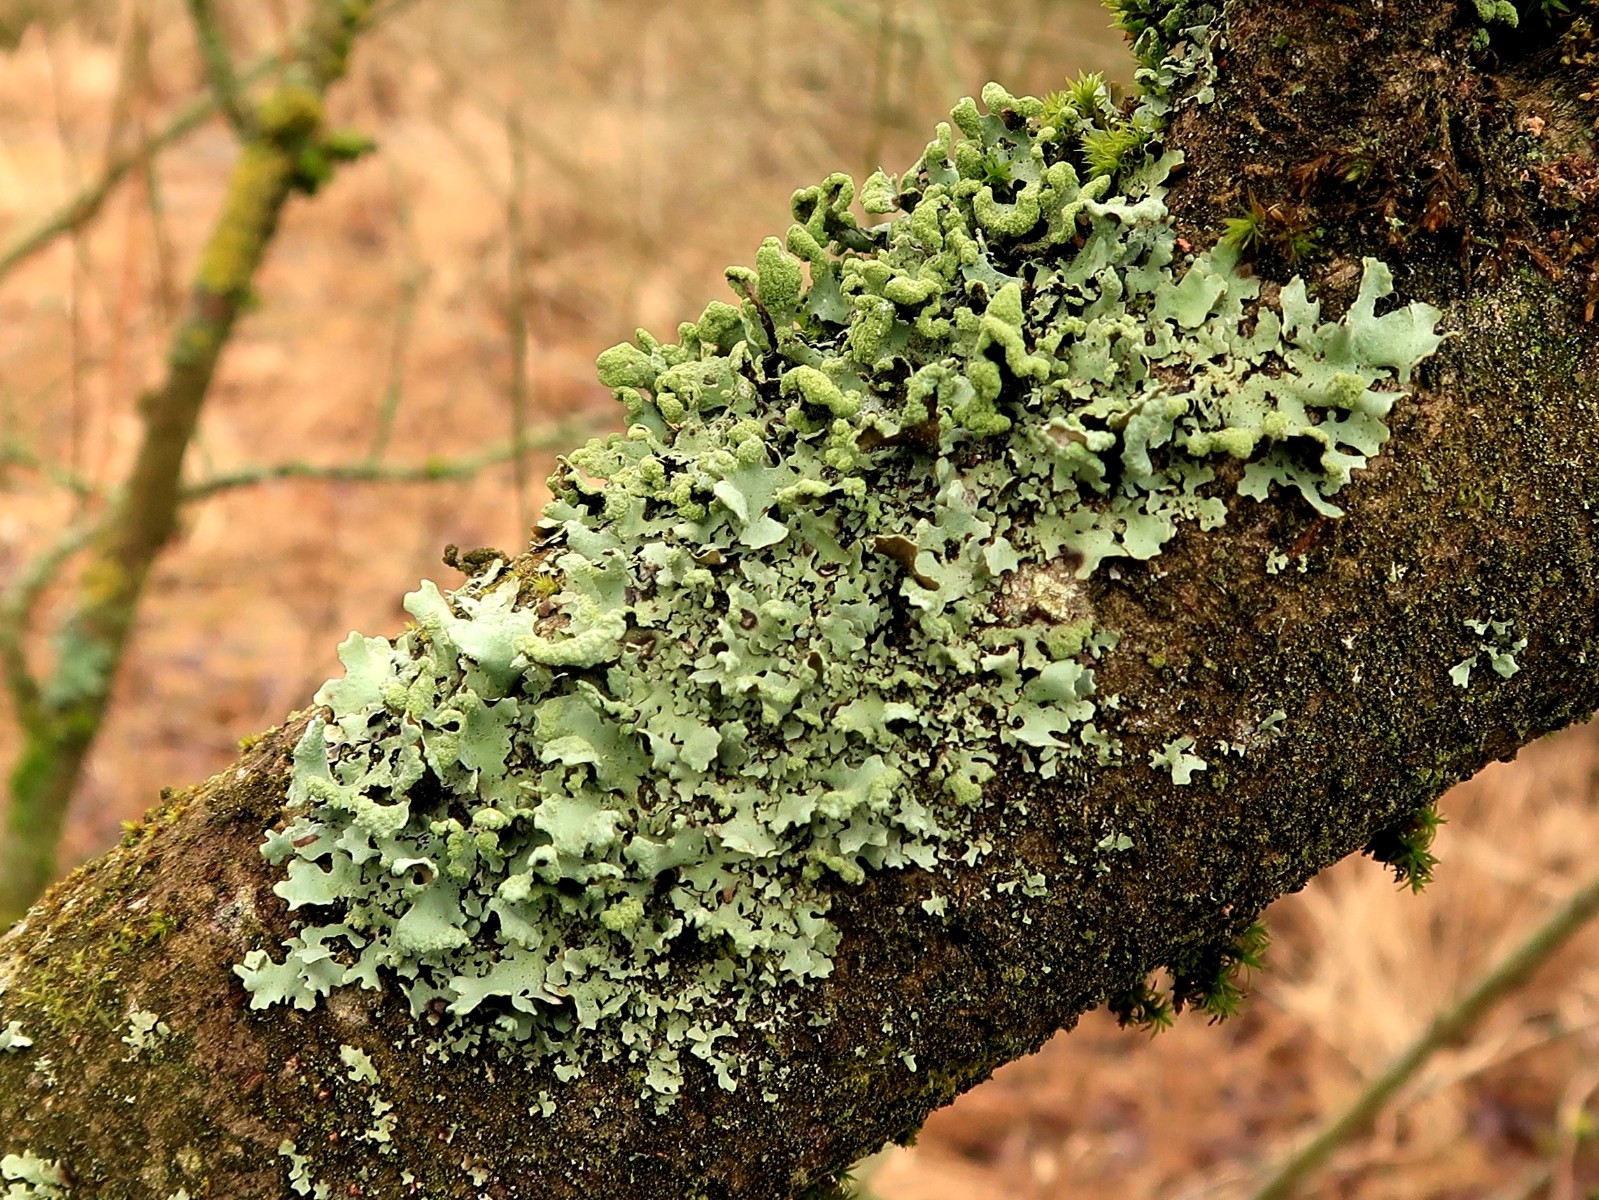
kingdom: Fungi
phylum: Ascomycota
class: Lecanoromycetes
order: Lecanorales
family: Parmeliaceae
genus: Hypotrachyna
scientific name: Hypotrachyna revoluta
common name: bleggrå skållav
